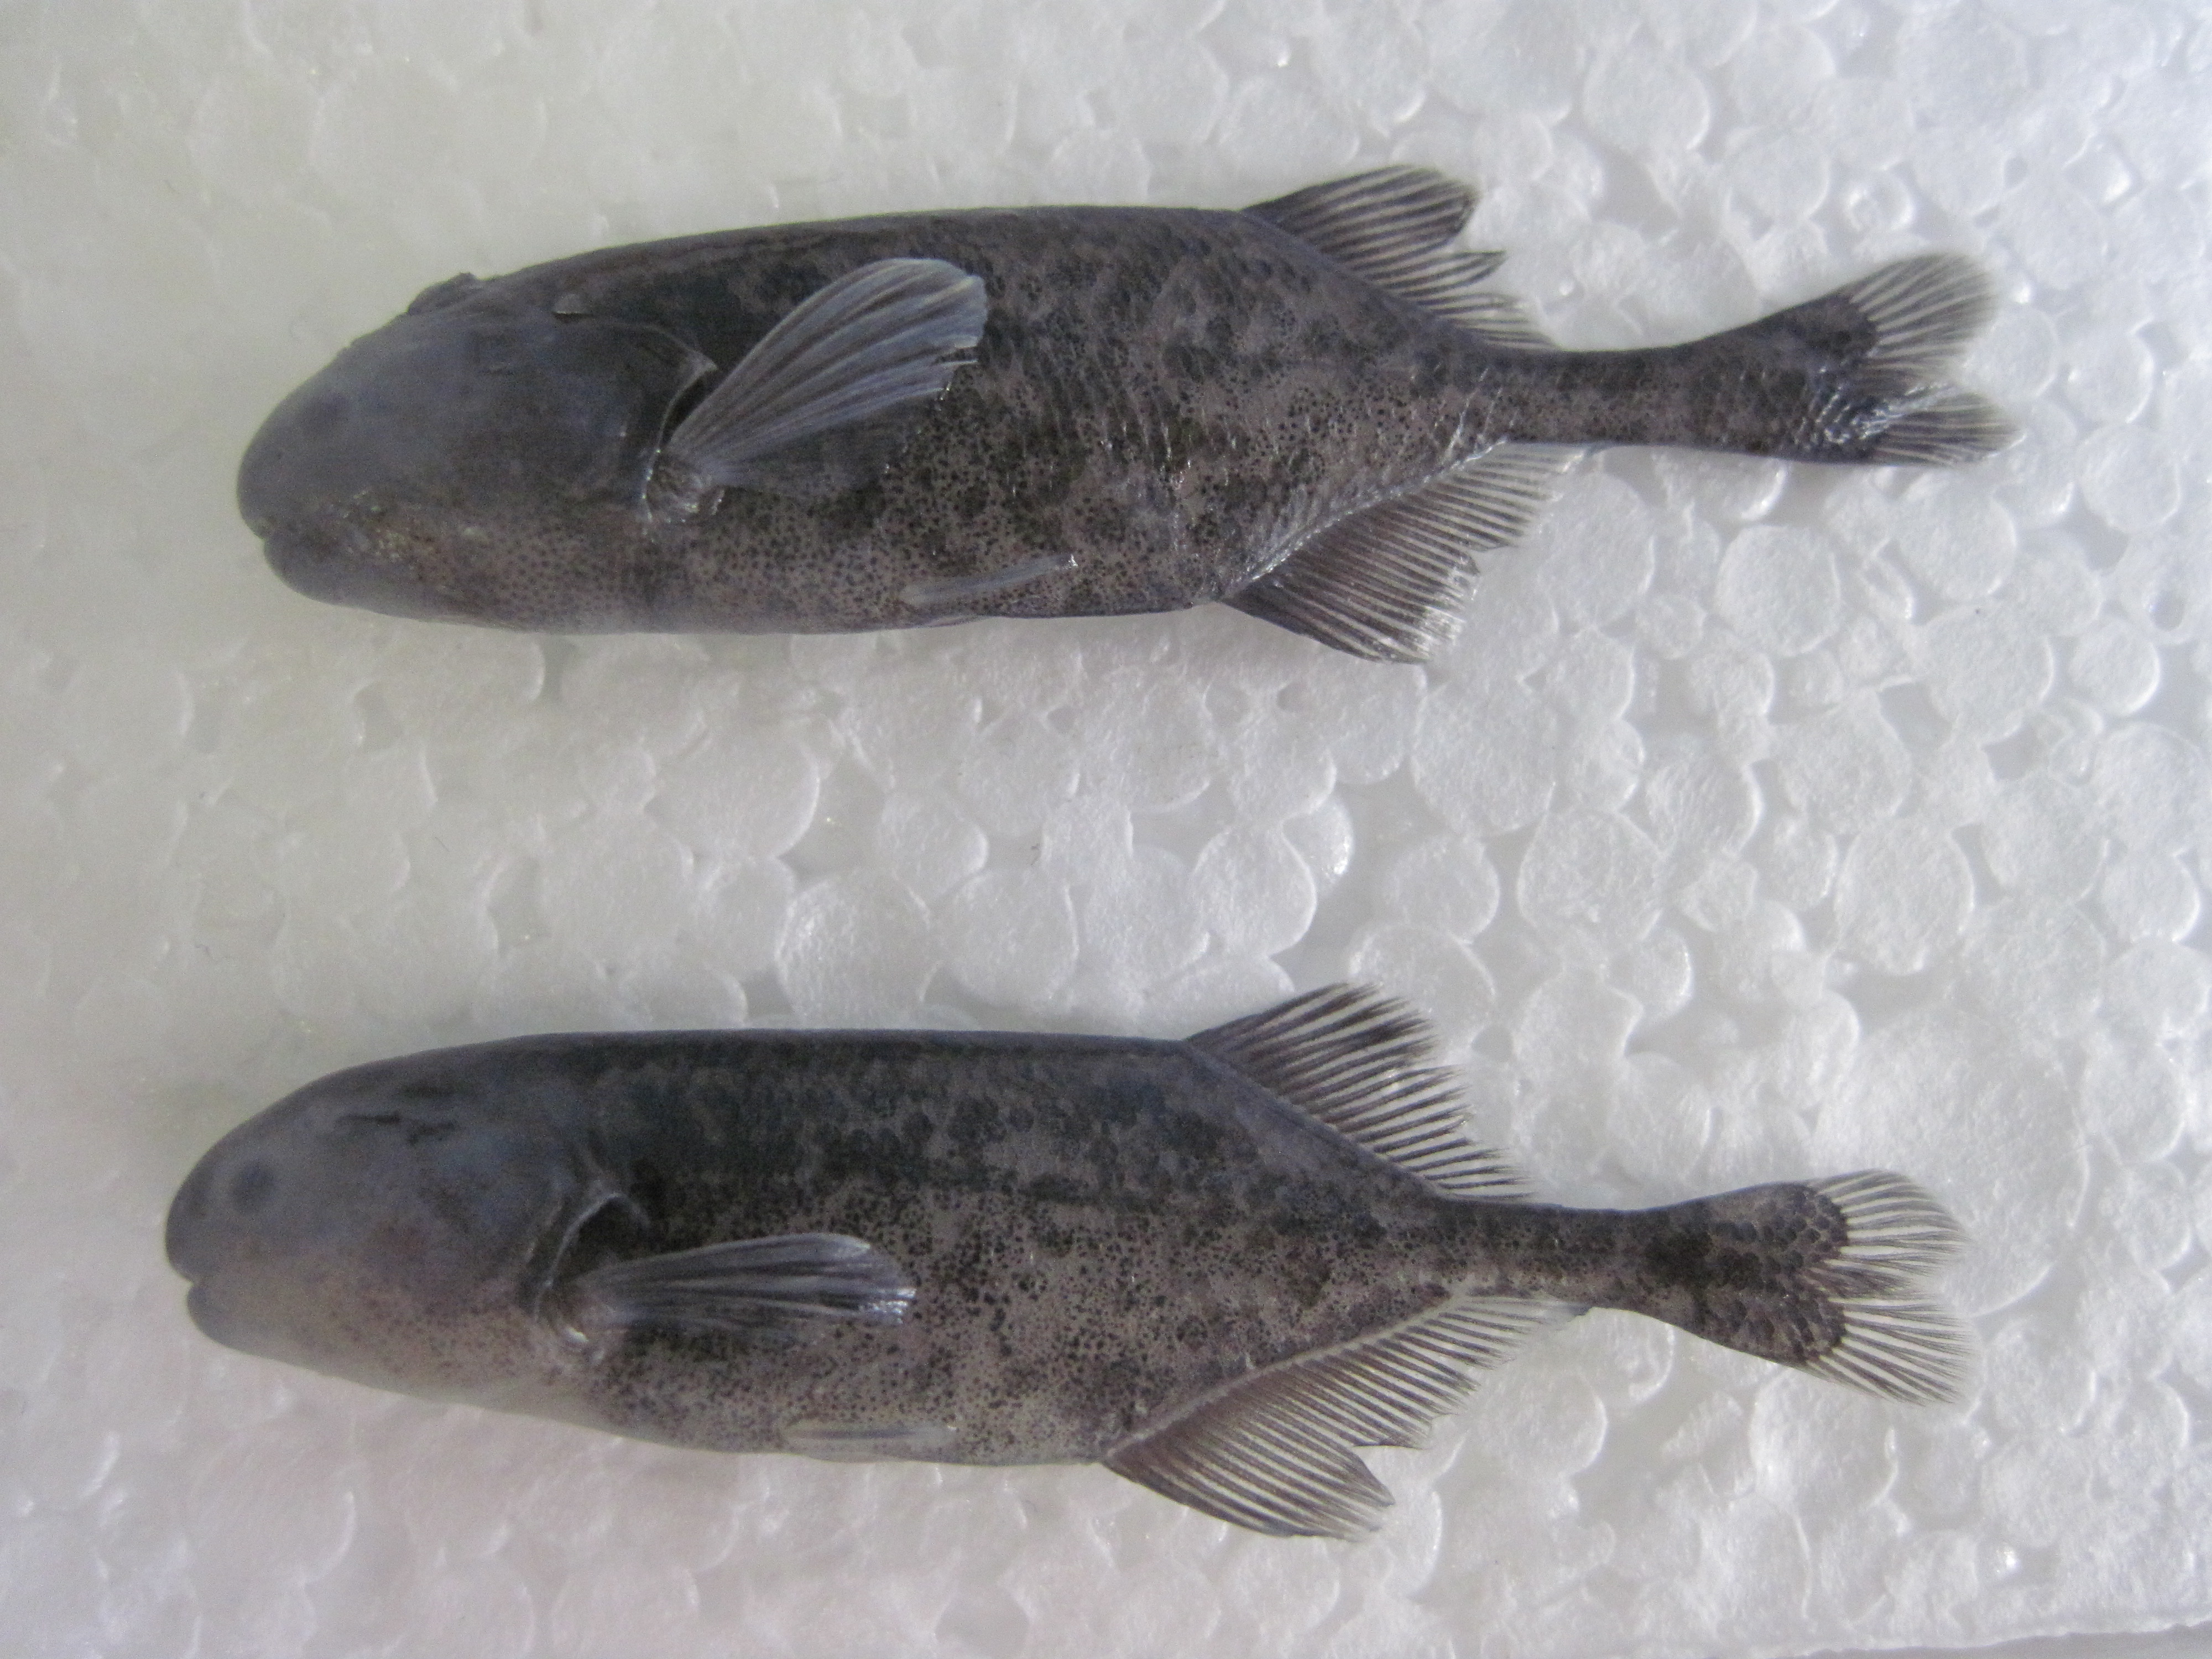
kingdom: Animalia
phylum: Chordata
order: Osteoglossiformes
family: Mormyridae
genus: Pollimyrus
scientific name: Pollimyrus castelnaui
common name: Dwarf stonebasher
